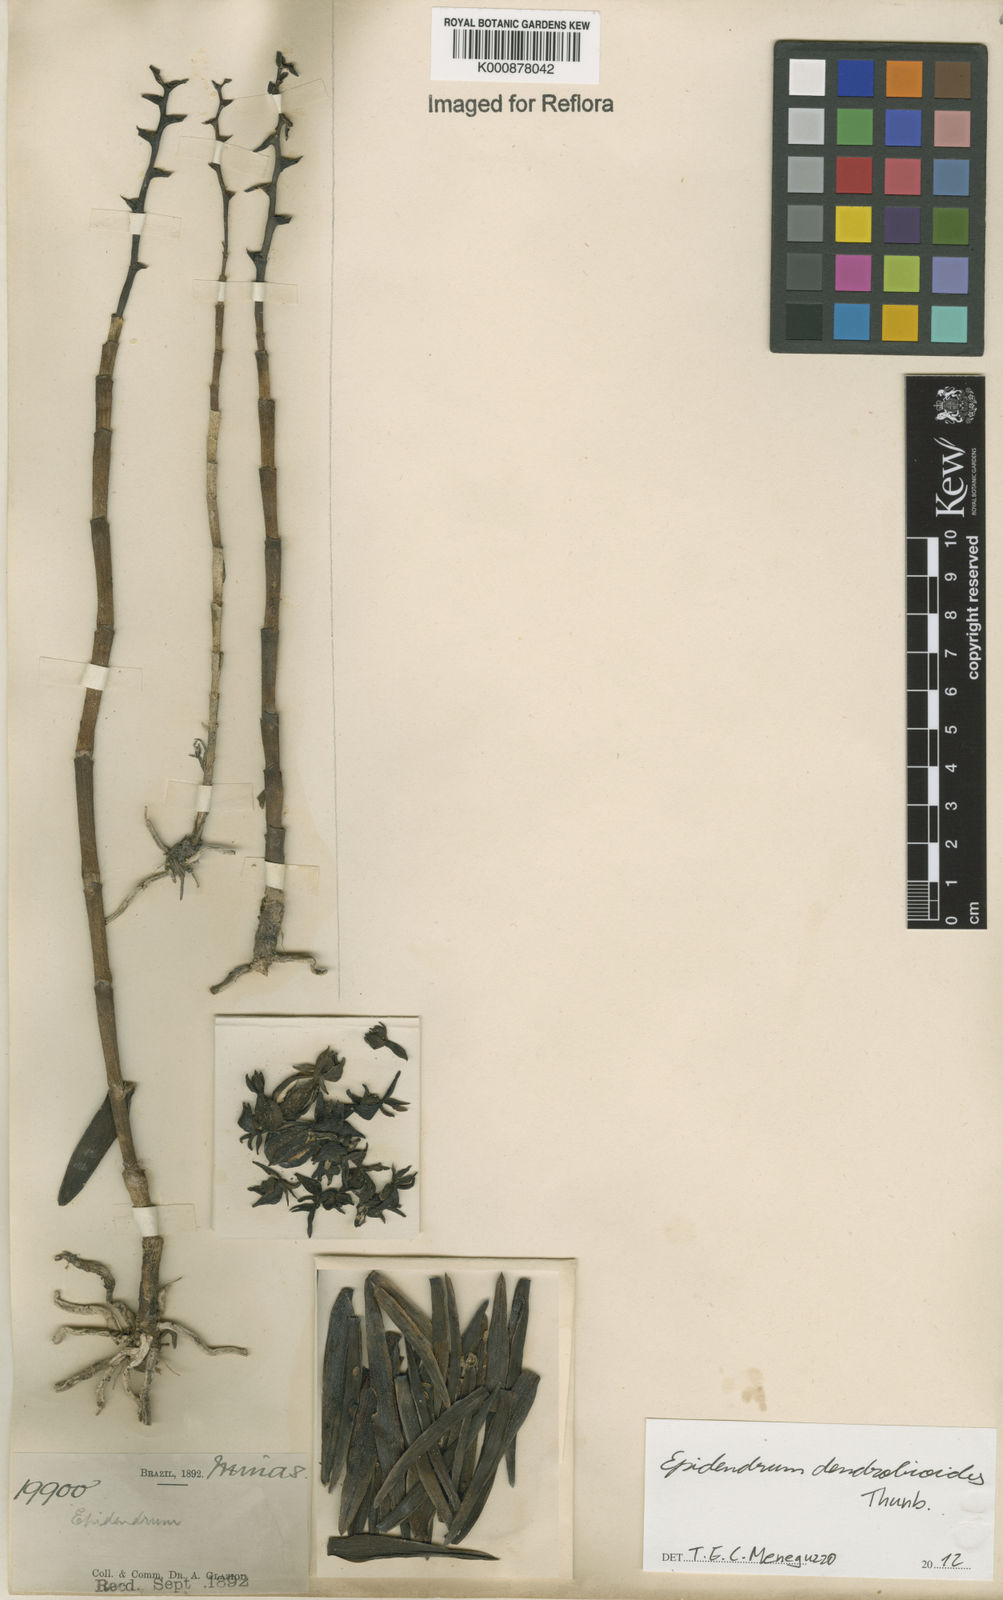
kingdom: Plantae
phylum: Tracheophyta
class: Liliopsida
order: Asparagales
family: Orchidaceae
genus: Epidendrum
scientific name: Epidendrum dendrobioides
